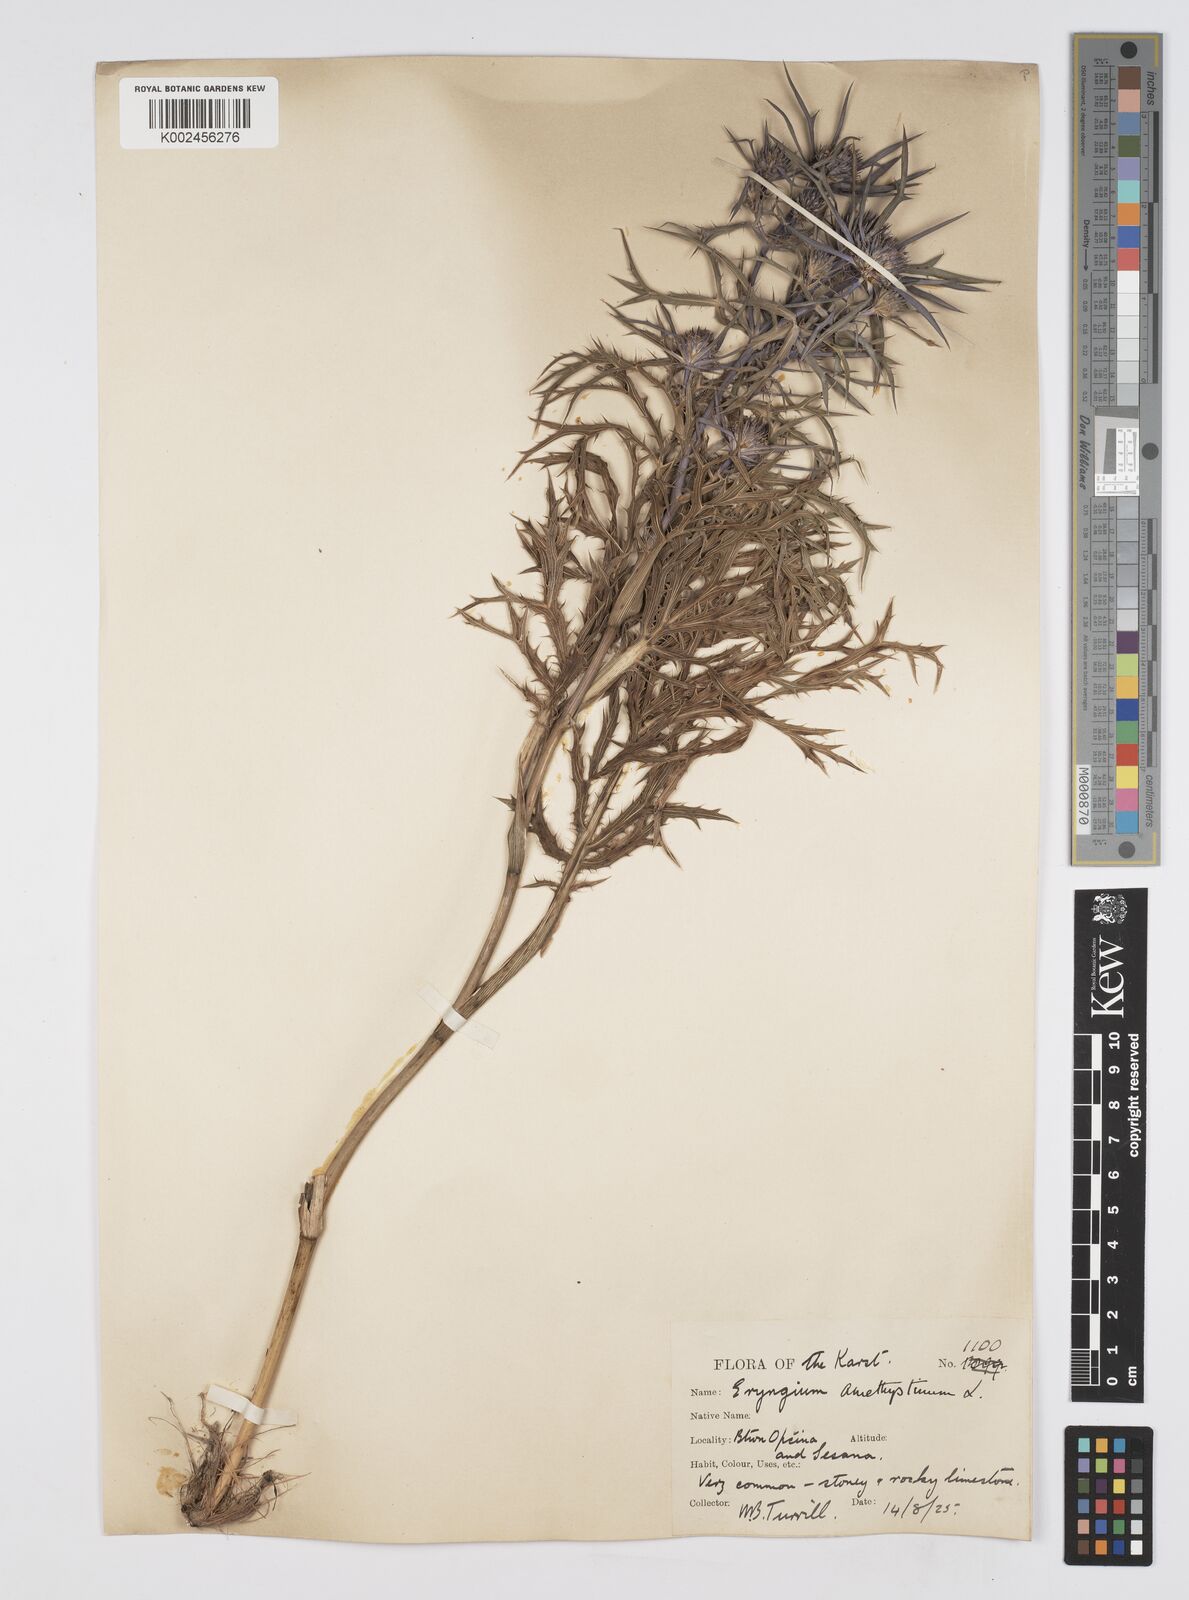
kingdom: Plantae
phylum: Tracheophyta
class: Magnoliopsida
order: Apiales
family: Apiaceae
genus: Eryngium
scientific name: Eryngium amethystinum
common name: Amethyst eryngo
